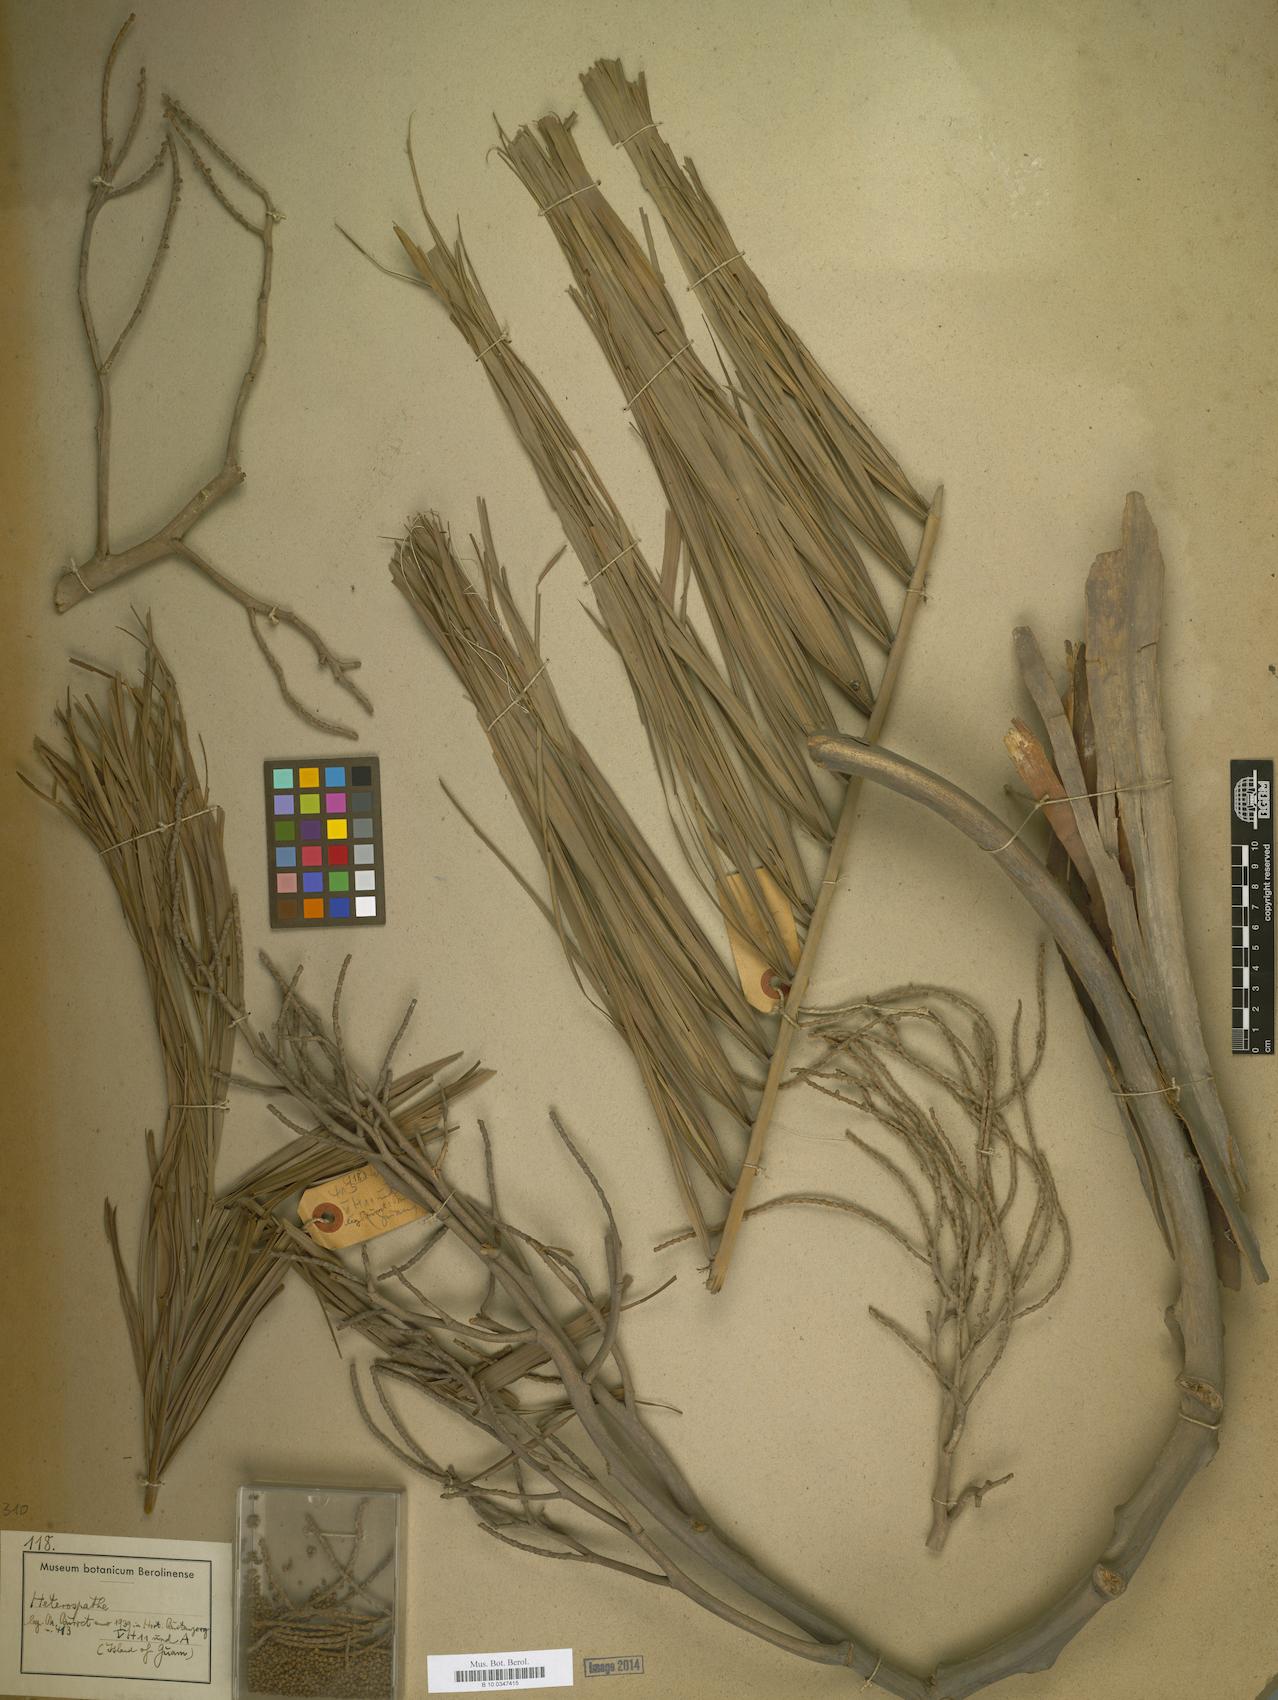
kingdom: Plantae
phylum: Tracheophyta
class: Liliopsida
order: Arecales
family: Arecaceae
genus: Heterospathe
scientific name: Heterospathe
